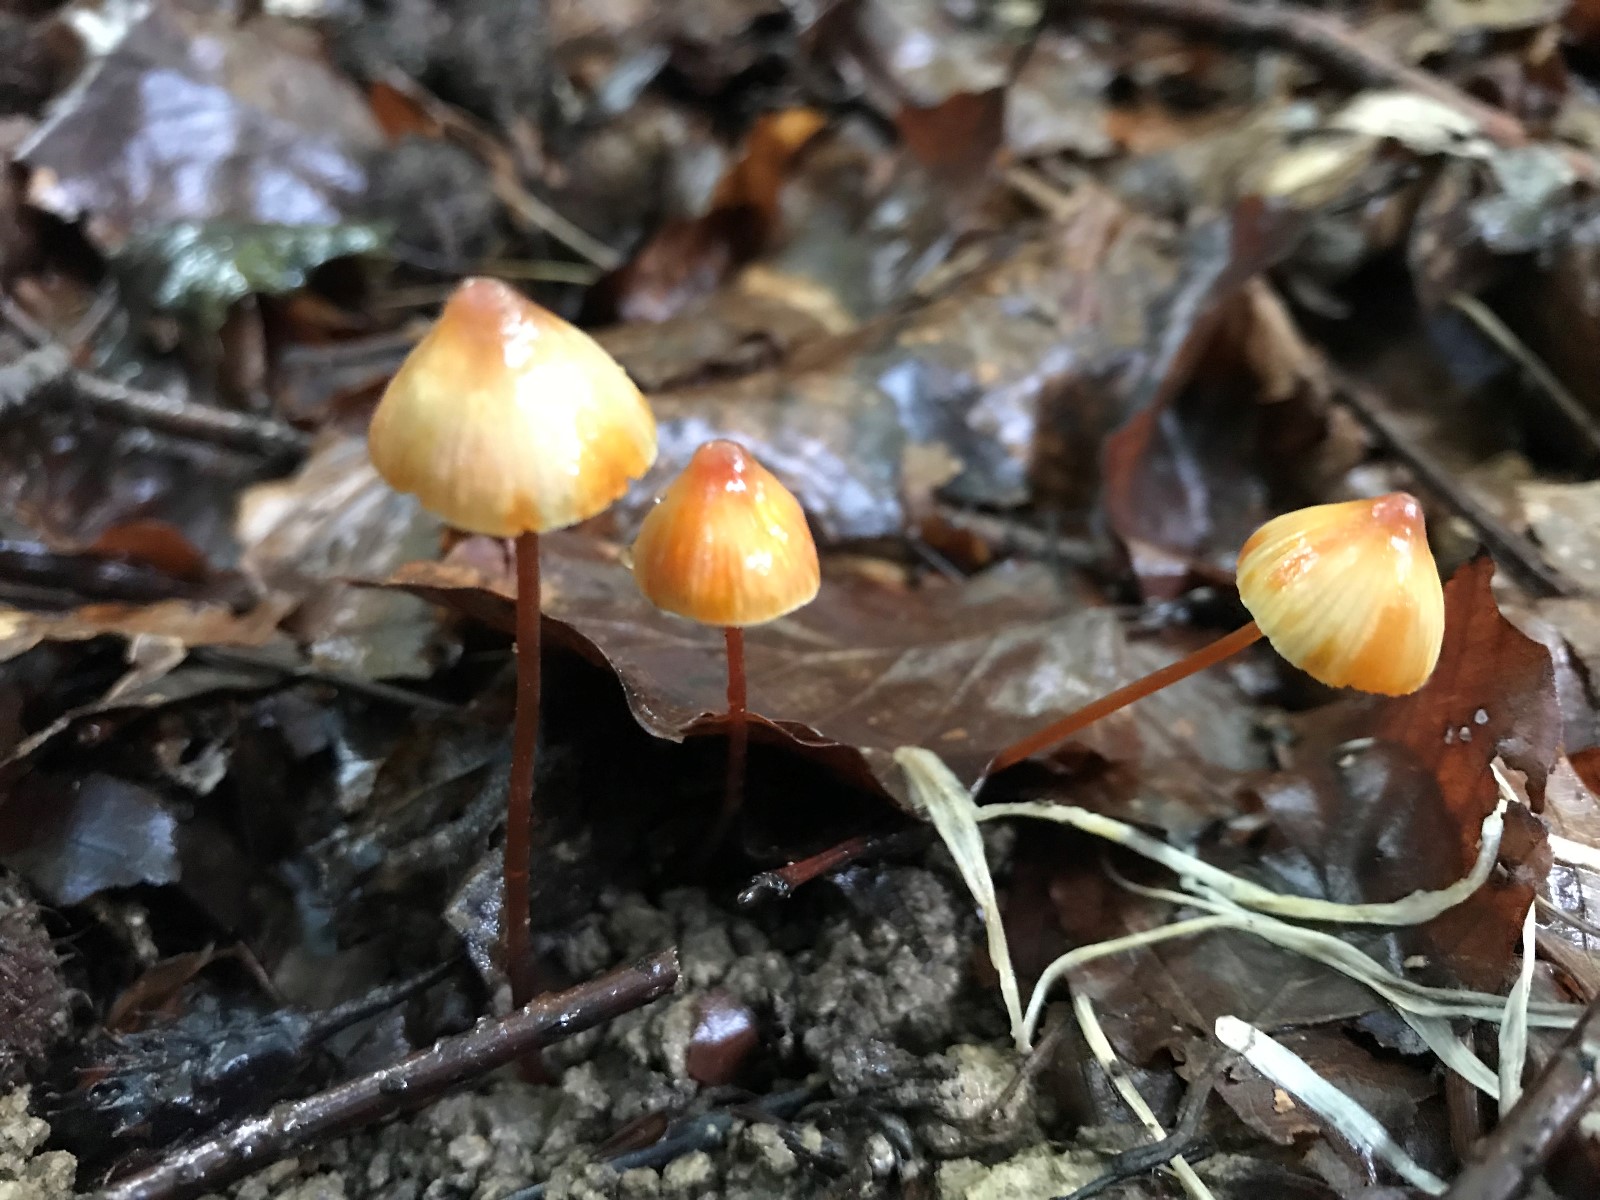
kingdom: Fungi
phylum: Basidiomycota
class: Agaricomycetes
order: Agaricales
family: Mycenaceae
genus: Mycena
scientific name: Mycena crocata
